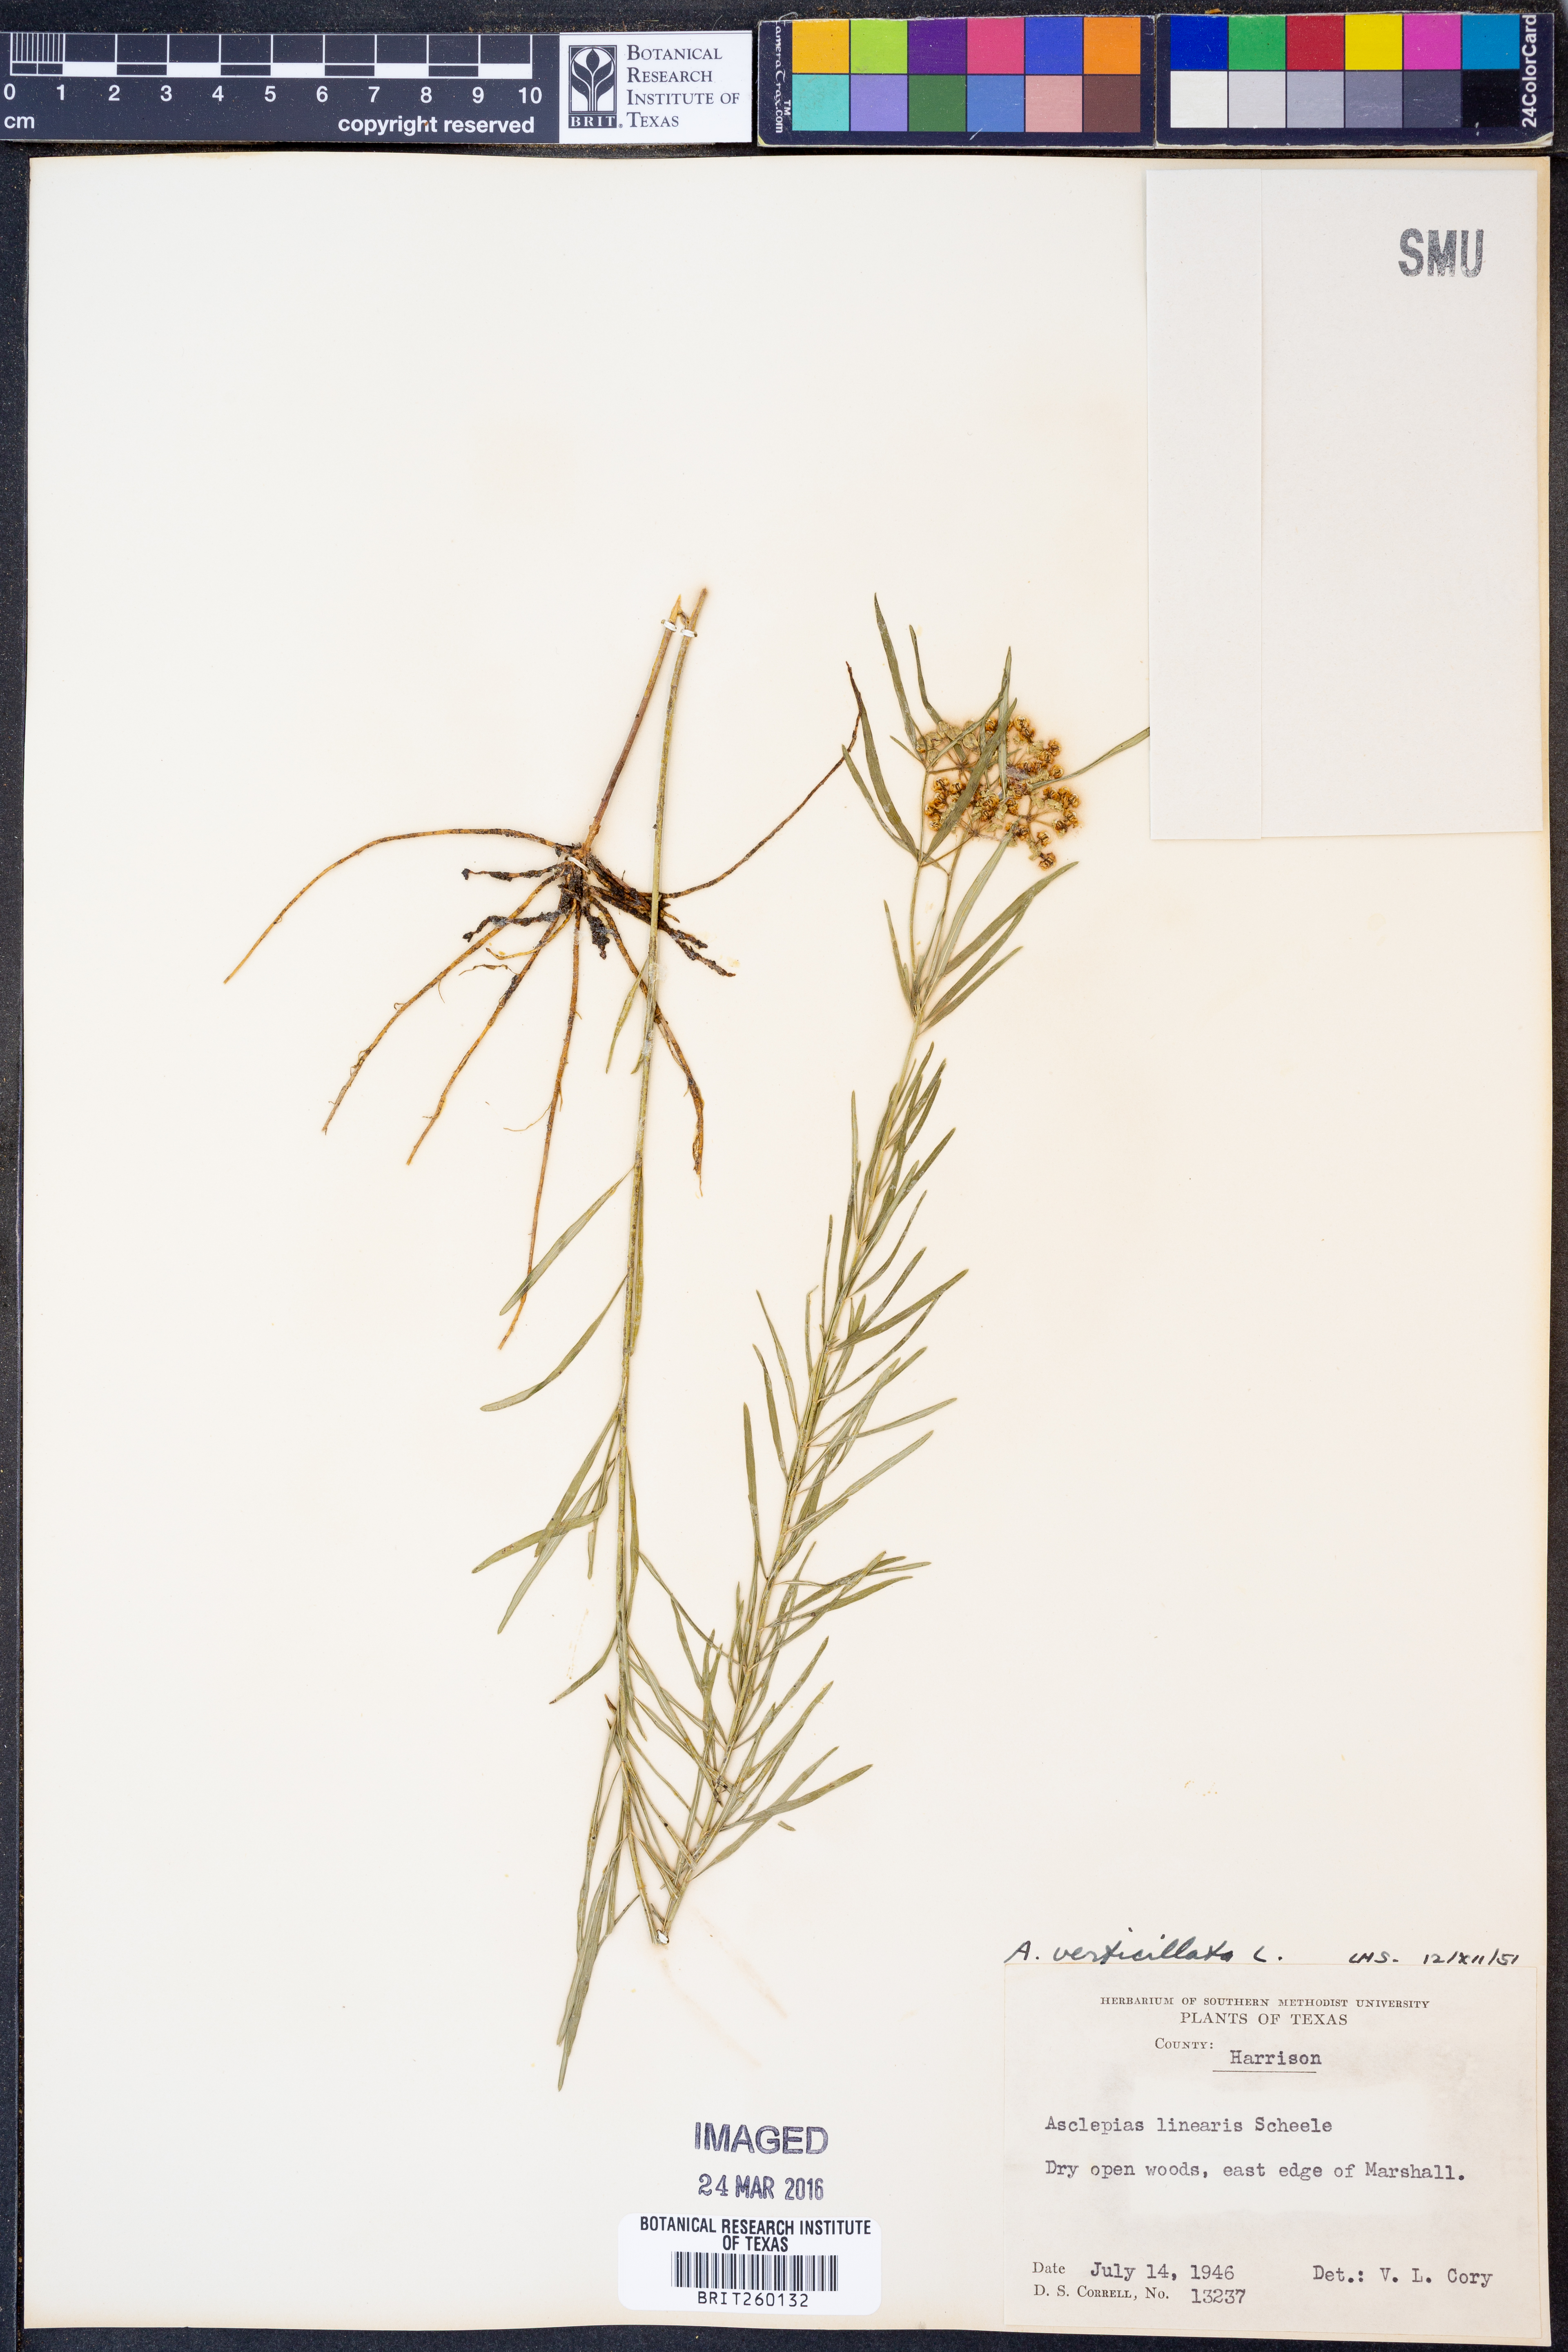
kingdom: Plantae
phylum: Tracheophyta
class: Magnoliopsida
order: Gentianales
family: Apocynaceae
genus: Asclepias
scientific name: Asclepias verticillata
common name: Eastern whorled milkweed
